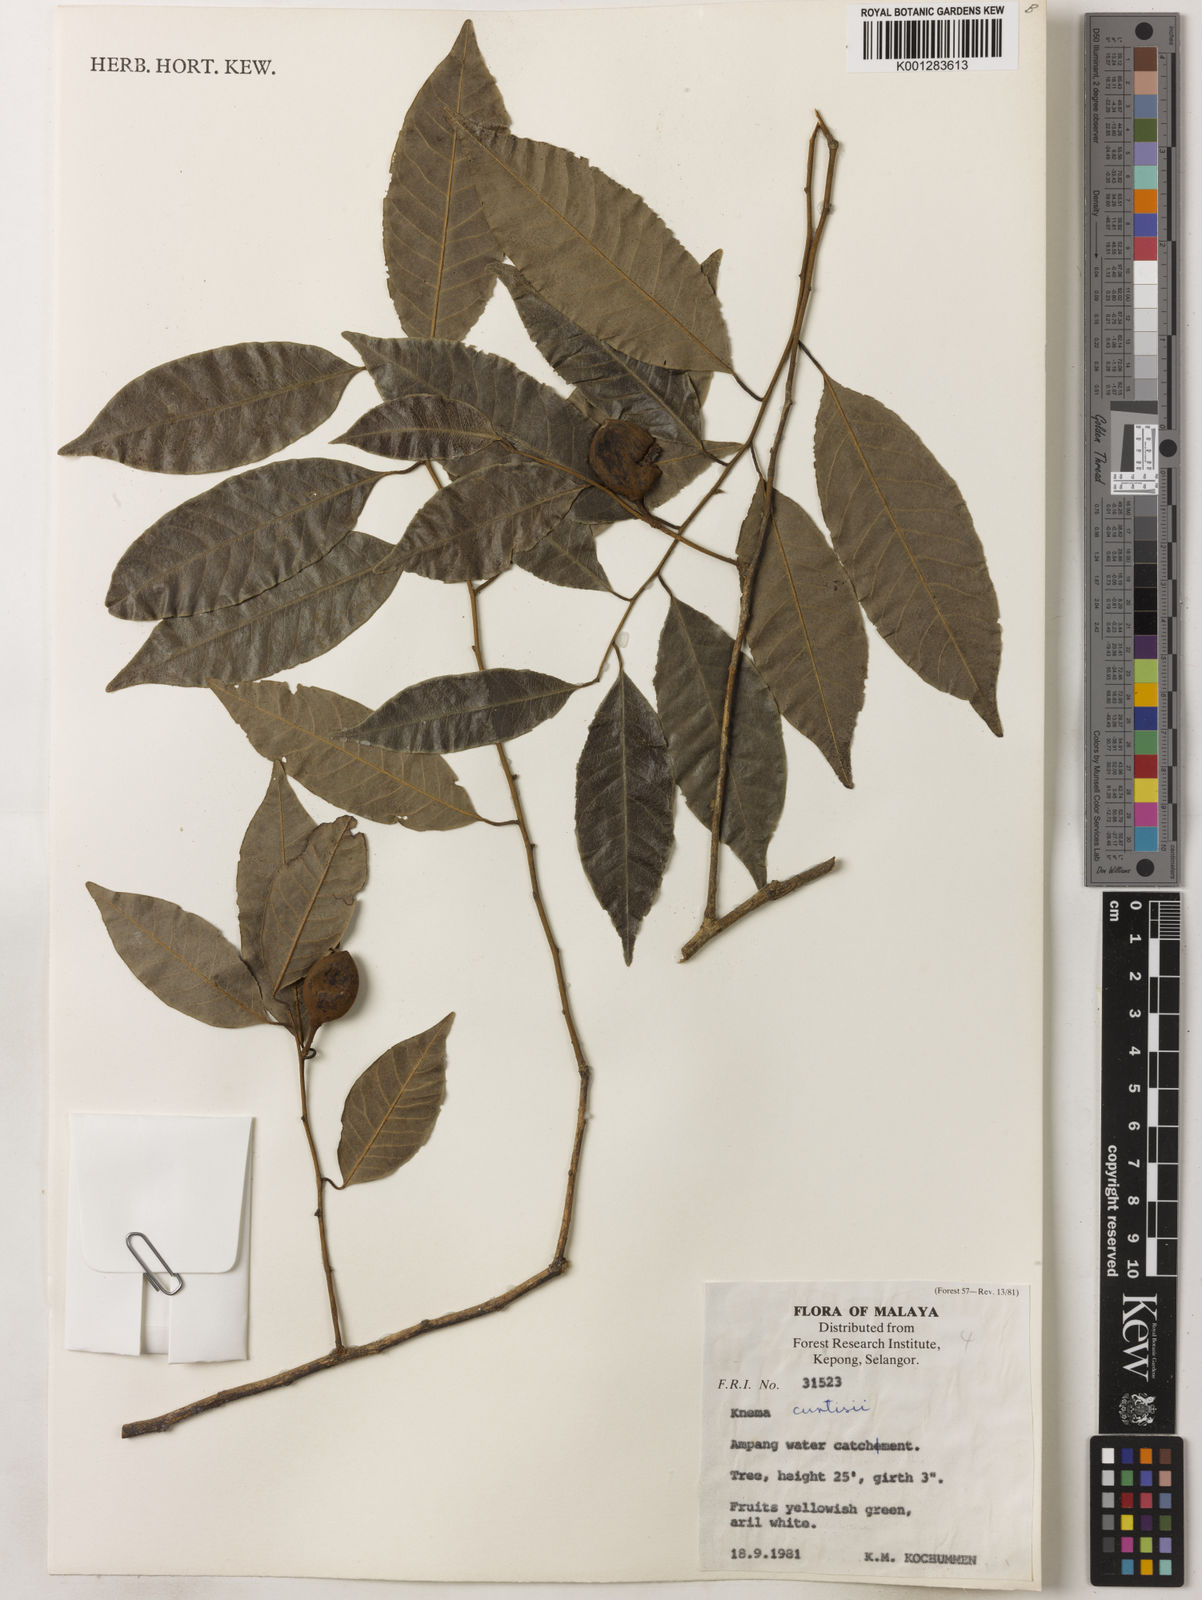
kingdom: Plantae
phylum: Tracheophyta
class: Magnoliopsida
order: Magnoliales
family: Myristicaceae
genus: Knema
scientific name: Knema curtisii
